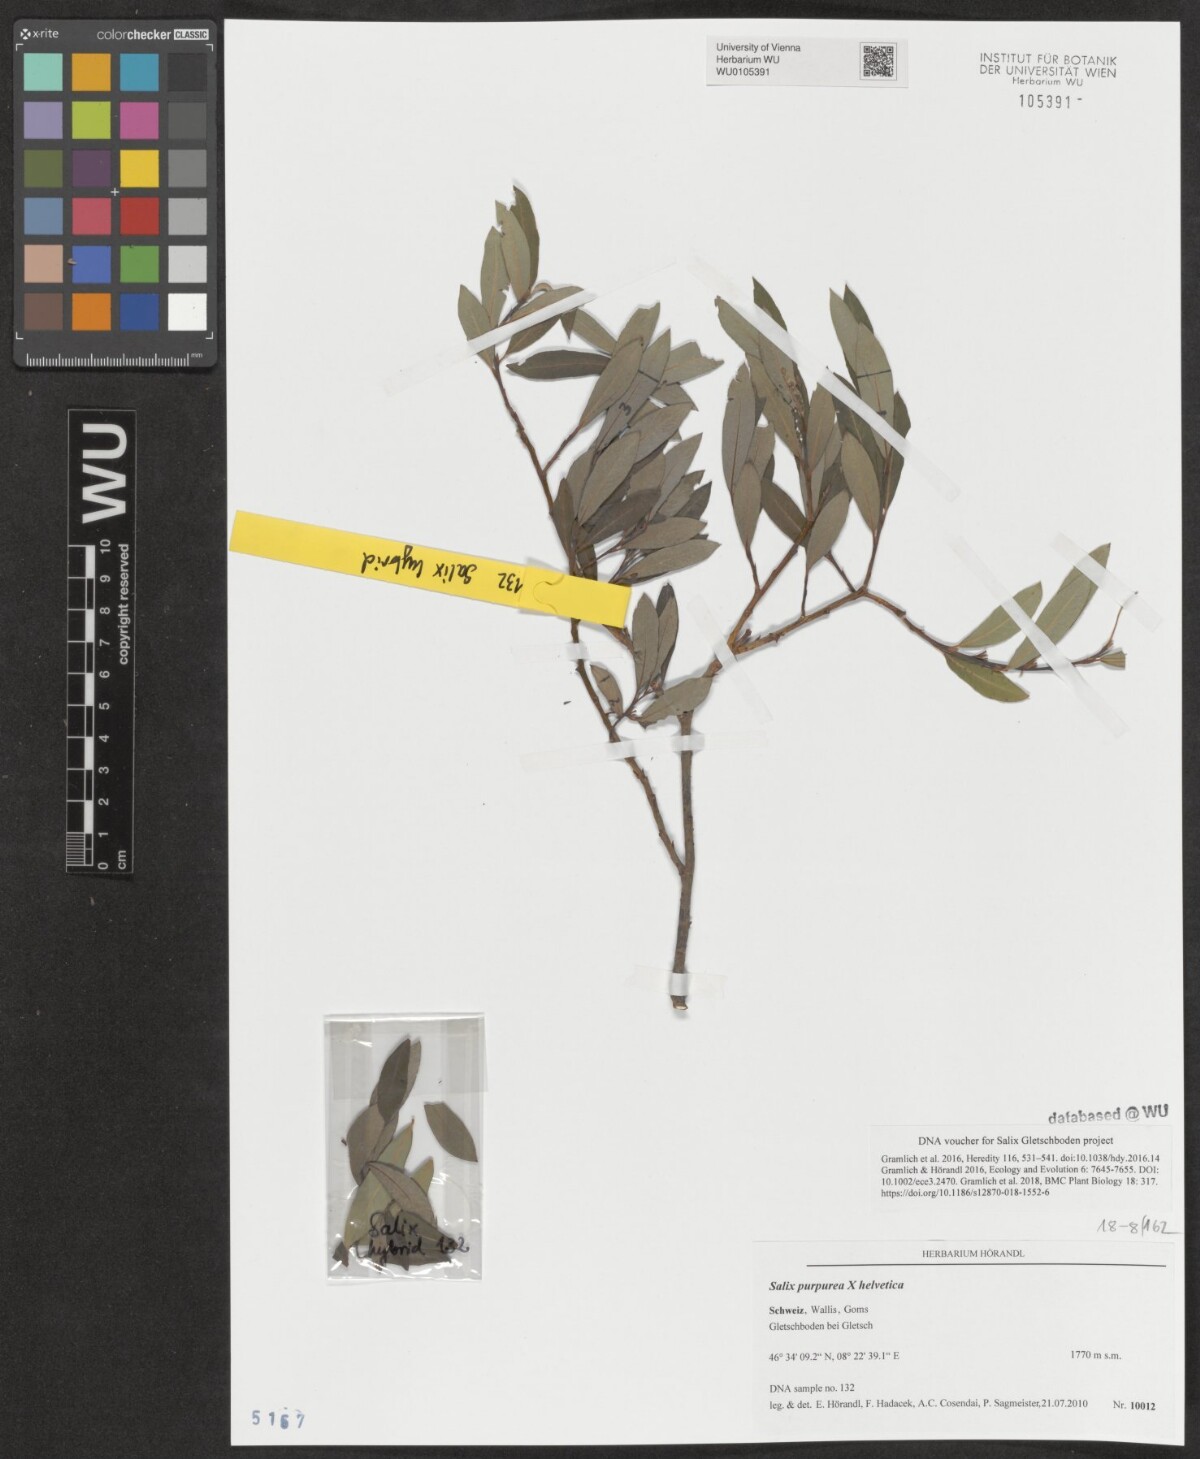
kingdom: Plantae
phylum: Tracheophyta
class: Magnoliopsida
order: Malpighiales
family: Salicaceae
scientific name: Salicaceae
